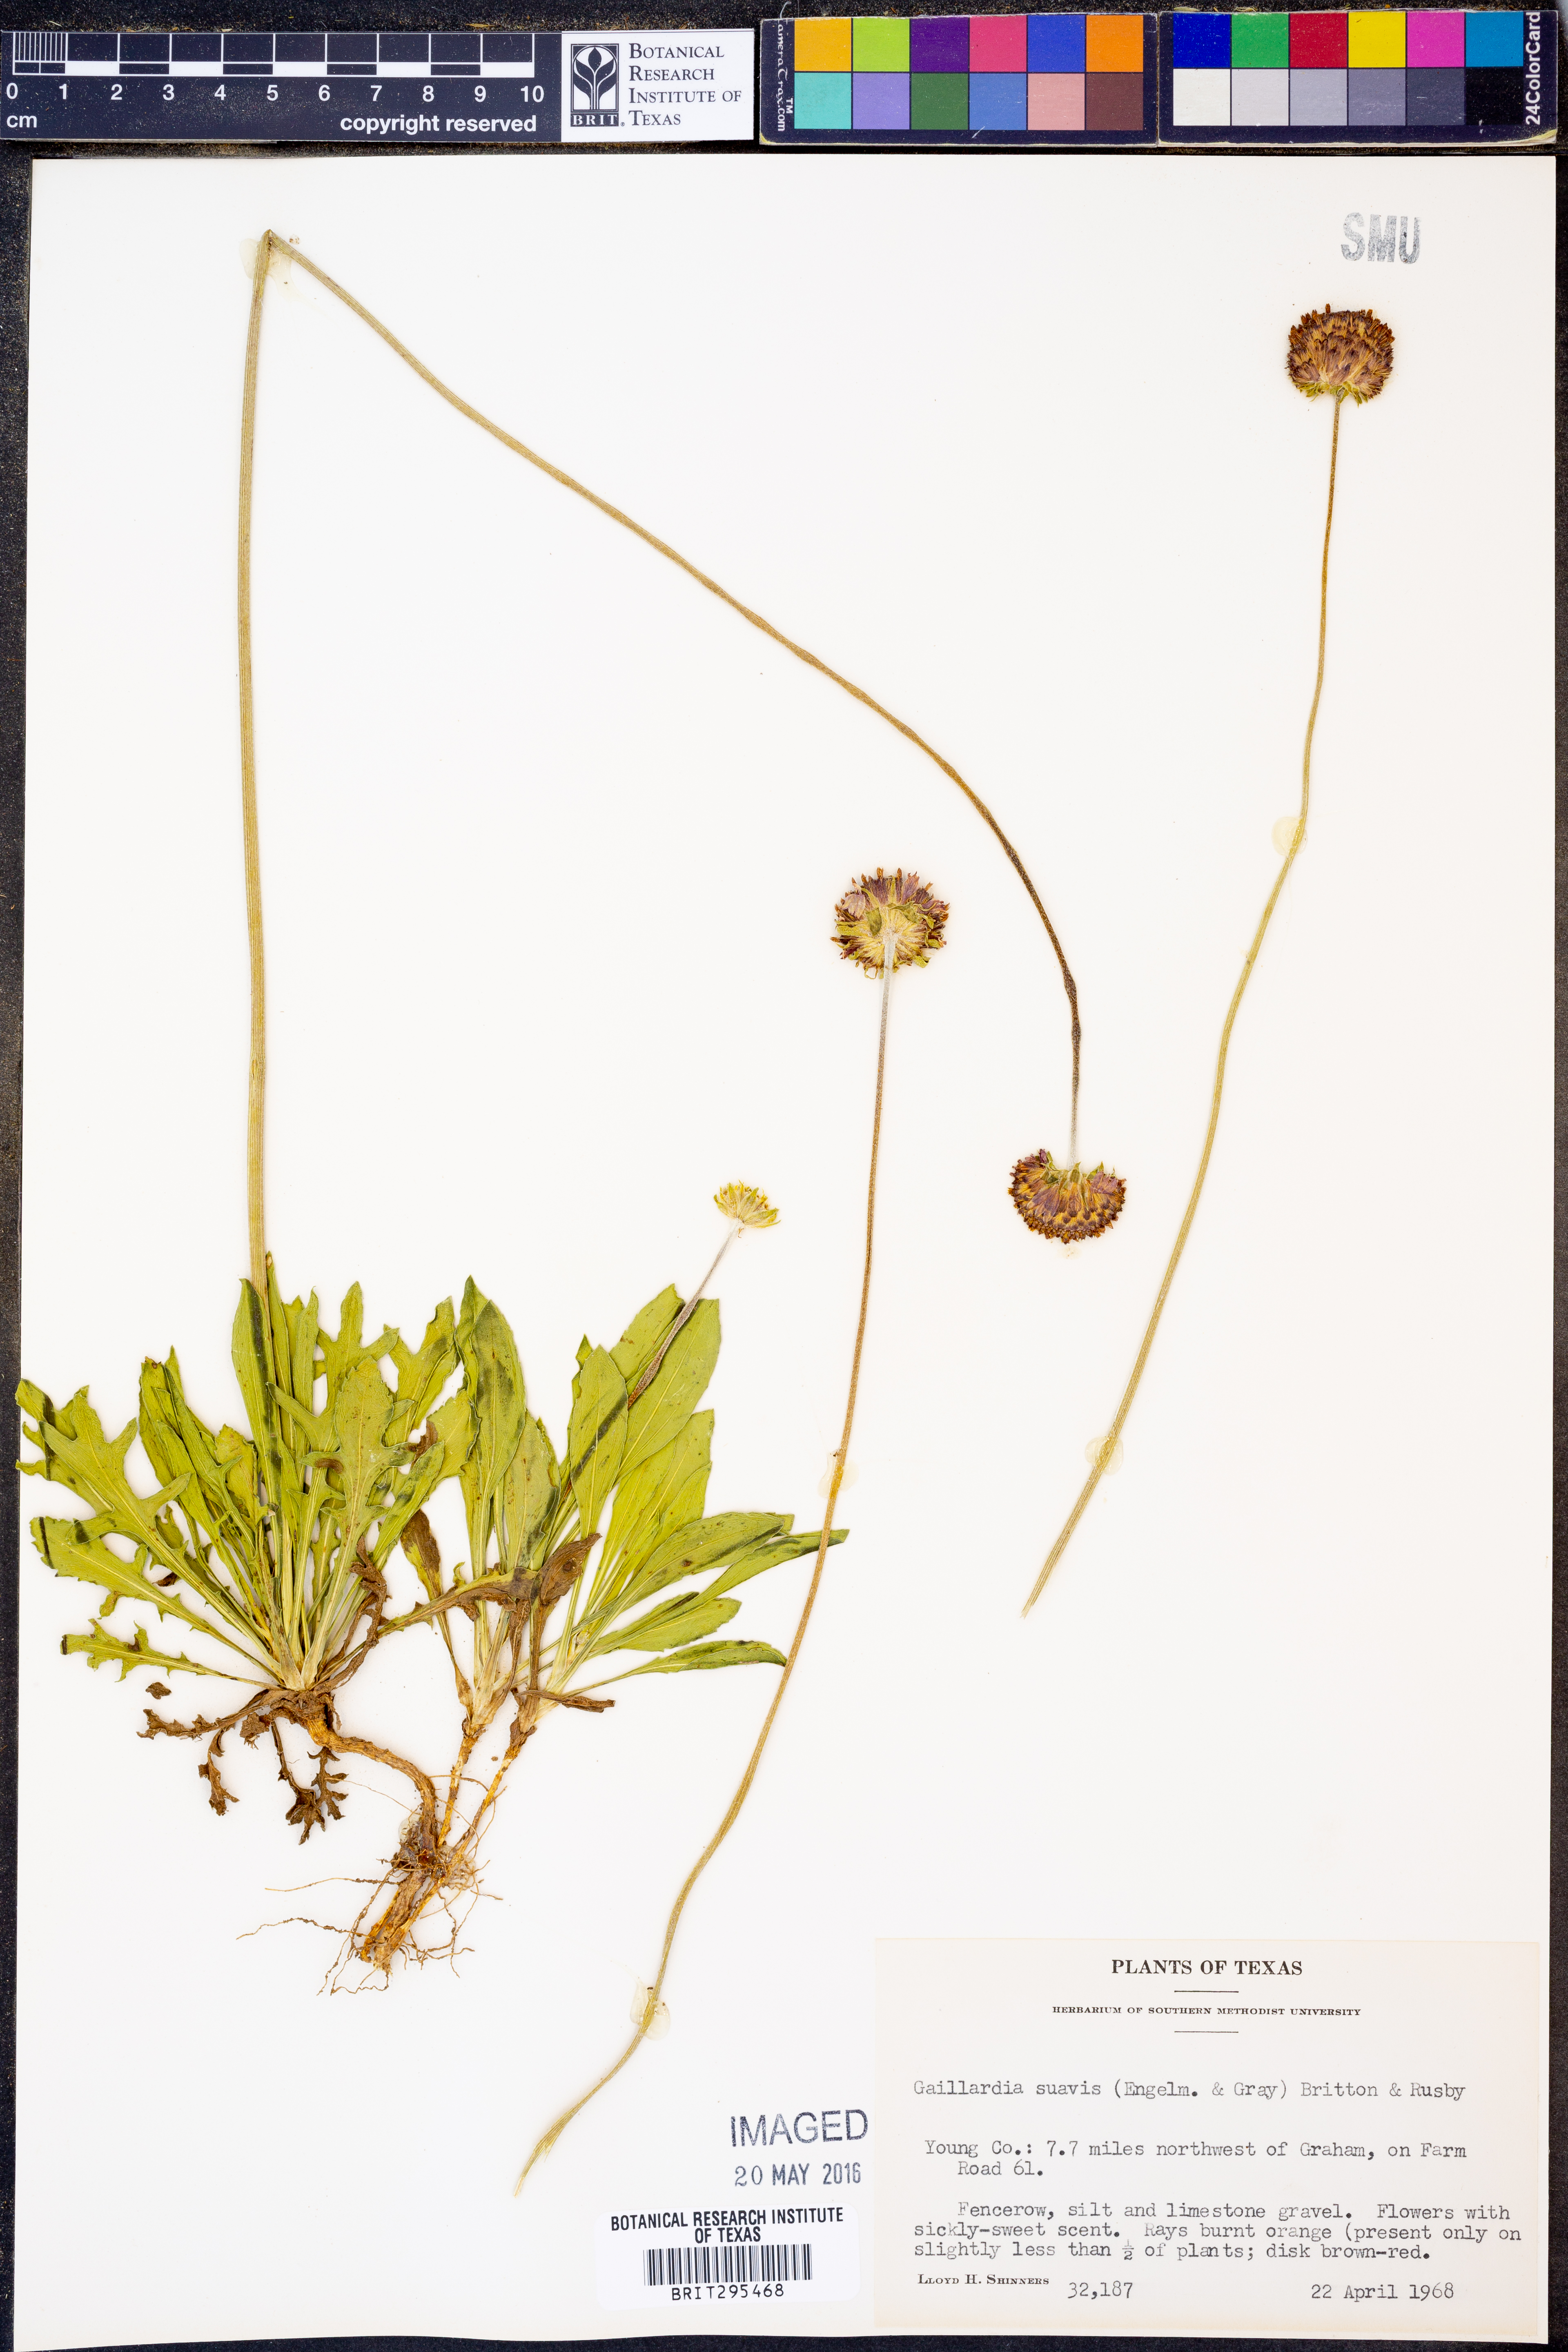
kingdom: Plantae
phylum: Tracheophyta
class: Magnoliopsida
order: Asterales
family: Asteraceae
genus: Gaillardia
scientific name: Gaillardia suavis
